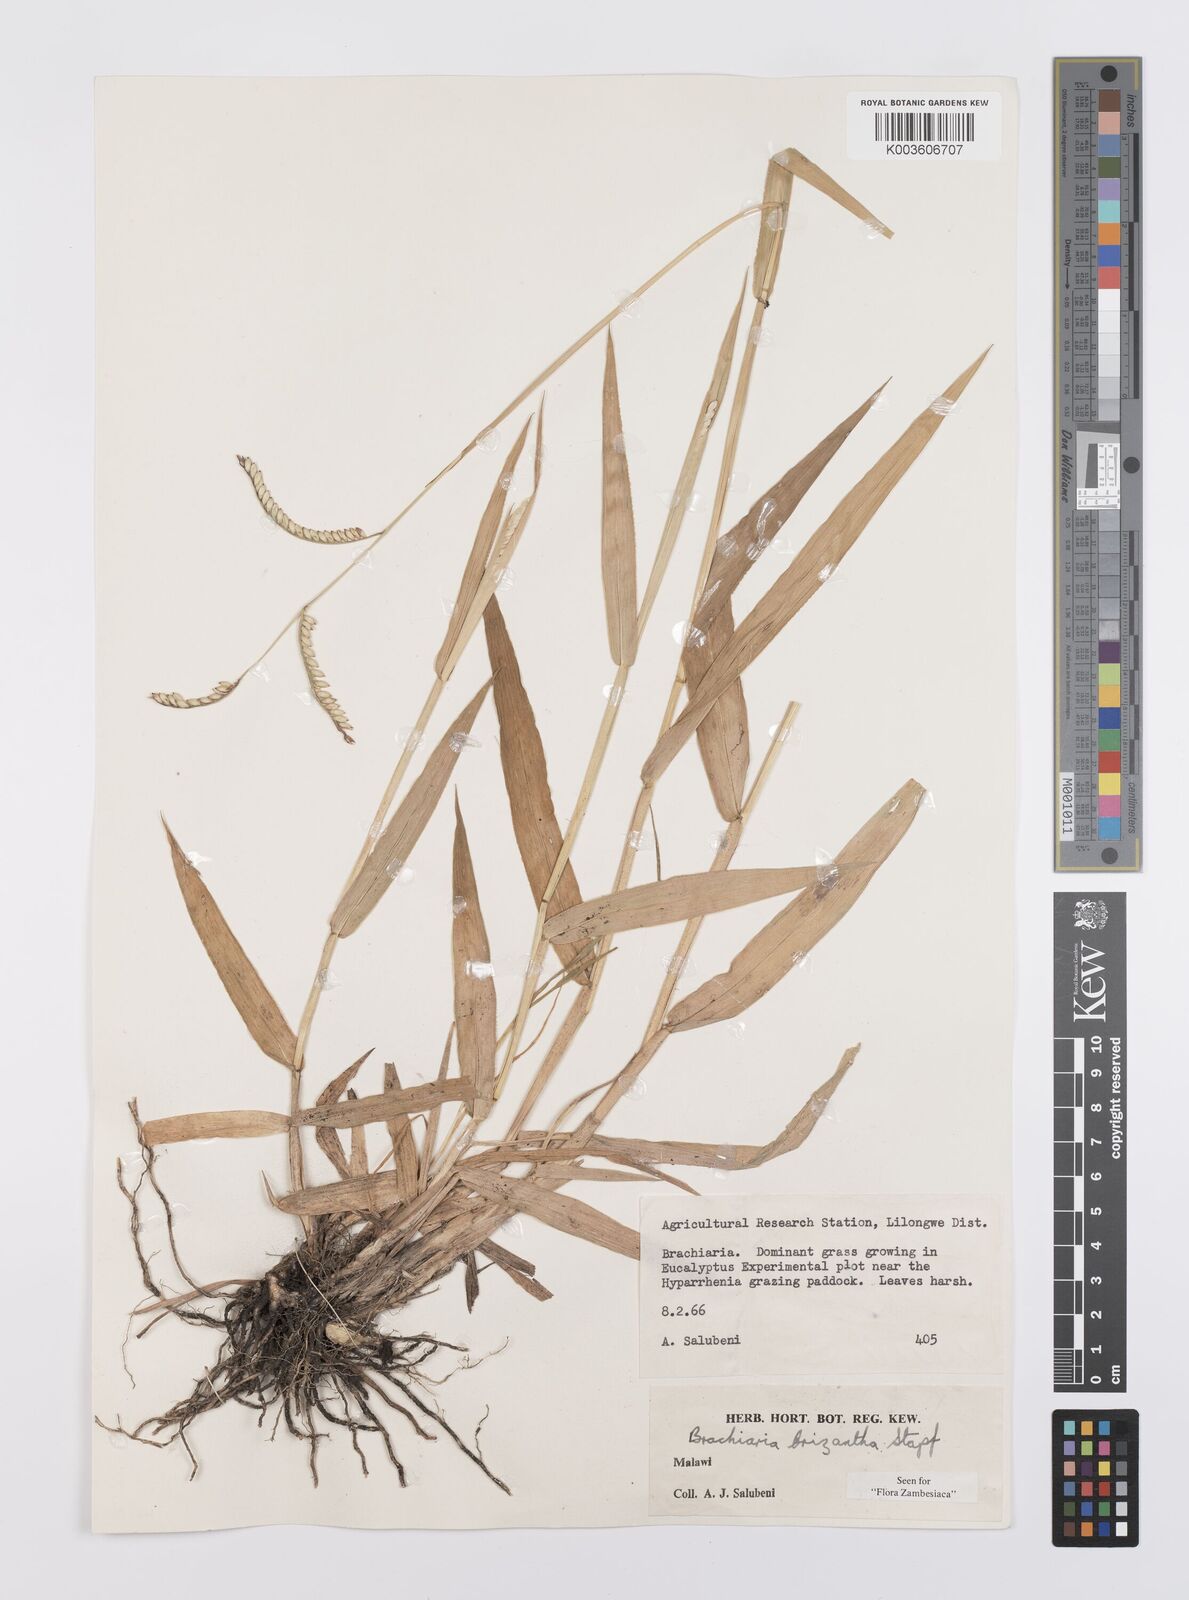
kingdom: Plantae
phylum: Tracheophyta
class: Liliopsida
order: Poales
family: Poaceae
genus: Urochloa
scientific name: Urochloa brizantha
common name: Palisade signalgrass
